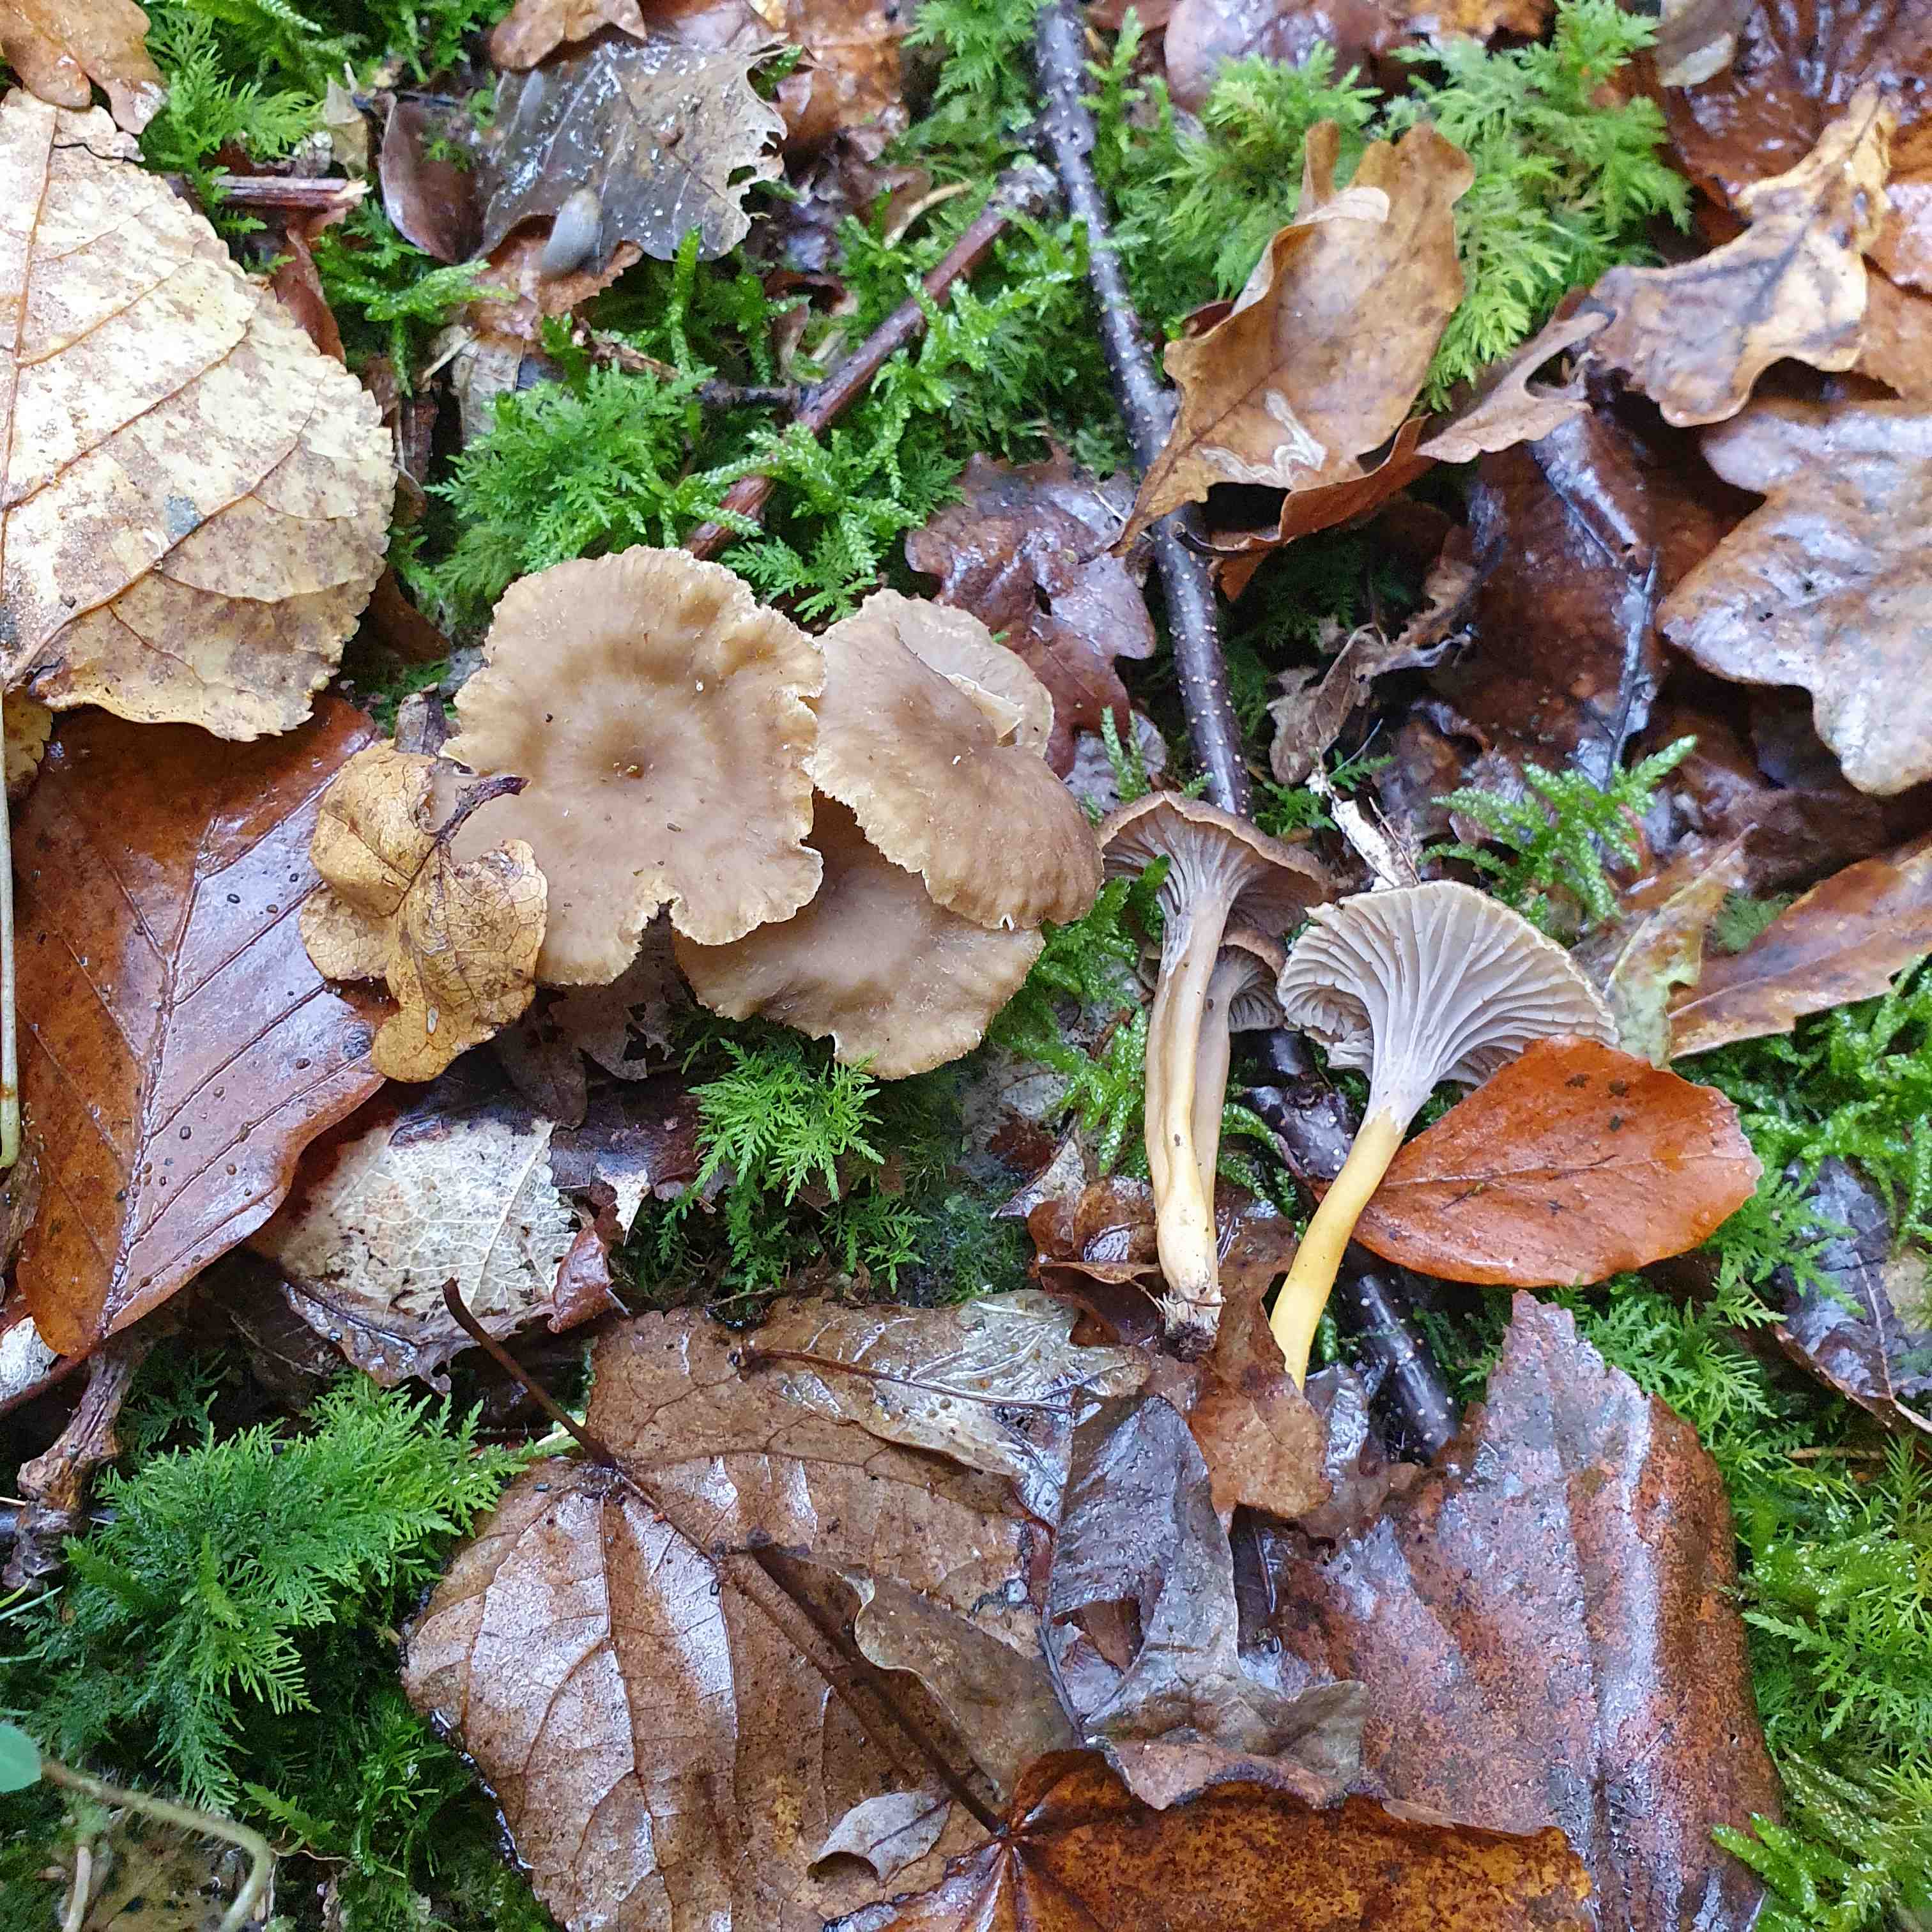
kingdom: Fungi
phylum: Basidiomycota
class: Agaricomycetes
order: Cantharellales
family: Hydnaceae
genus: Craterellus
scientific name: Craterellus tubaeformis
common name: tragt-kantarel
